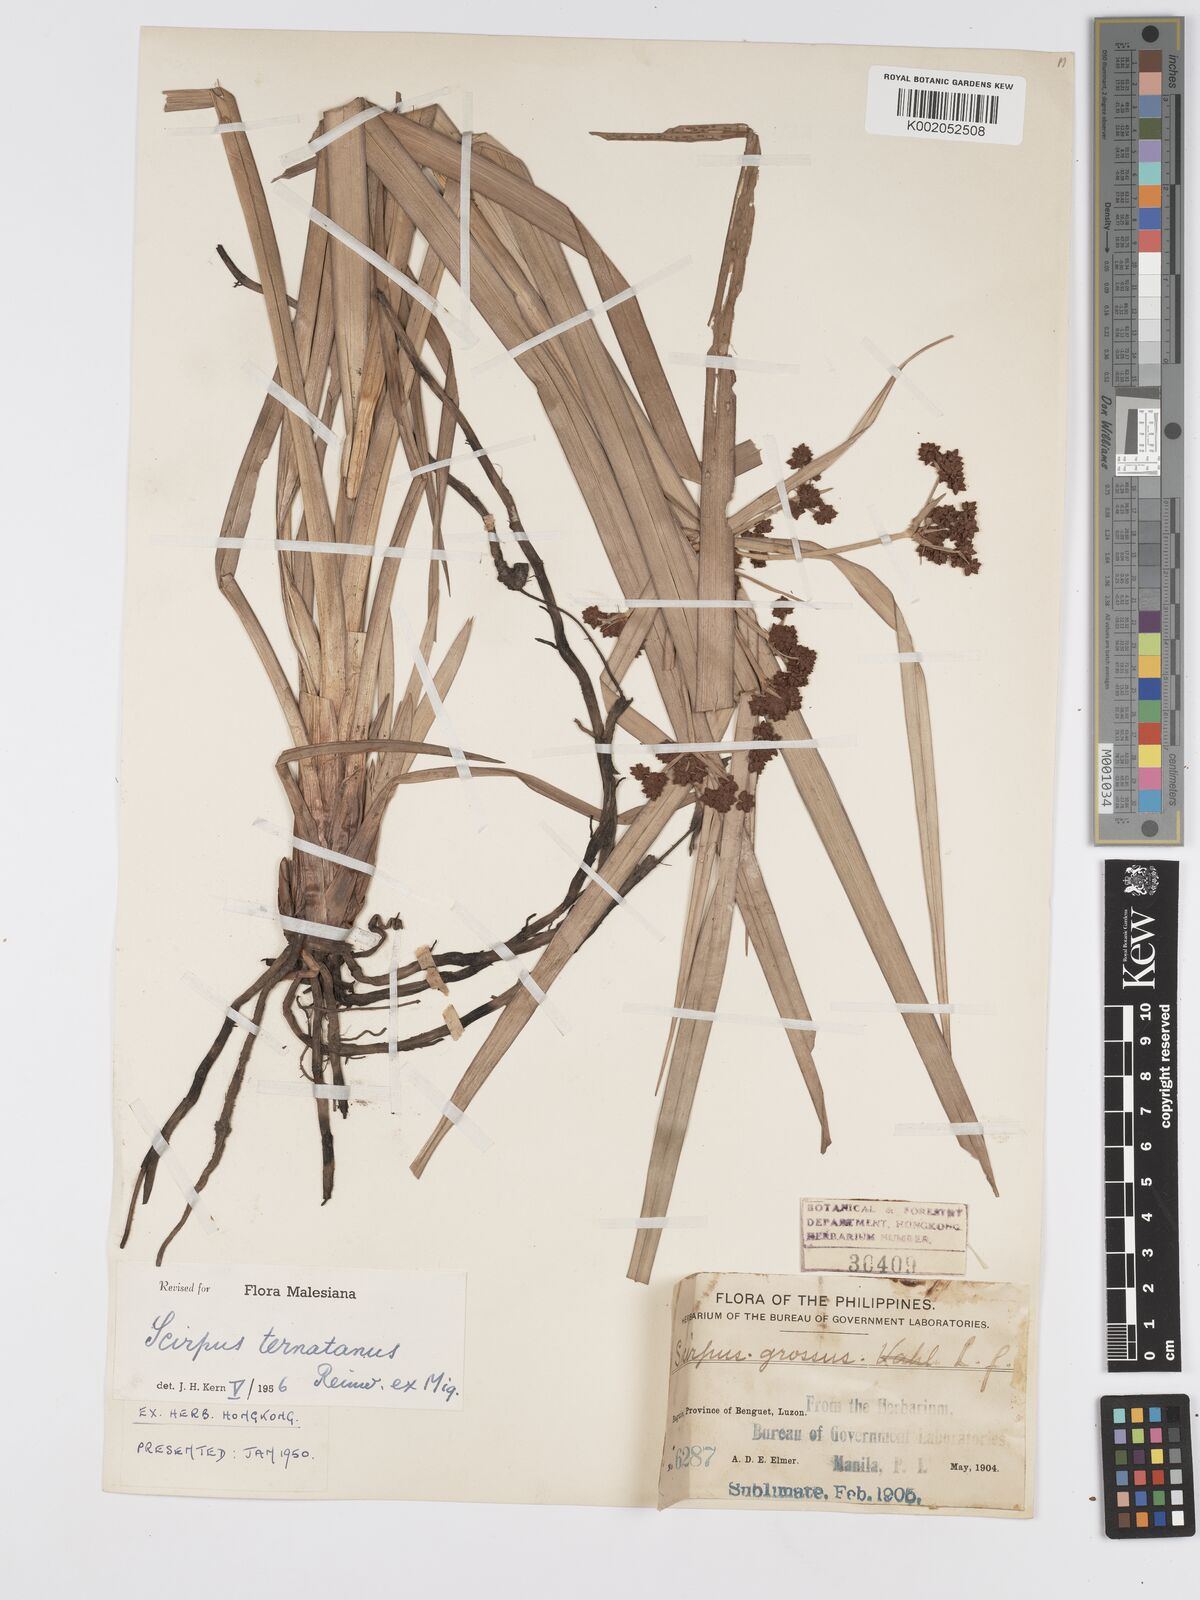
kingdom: Plantae
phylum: Tracheophyta
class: Liliopsida
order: Poales
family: Cyperaceae
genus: Scirpus
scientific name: Scirpus ternatanus
